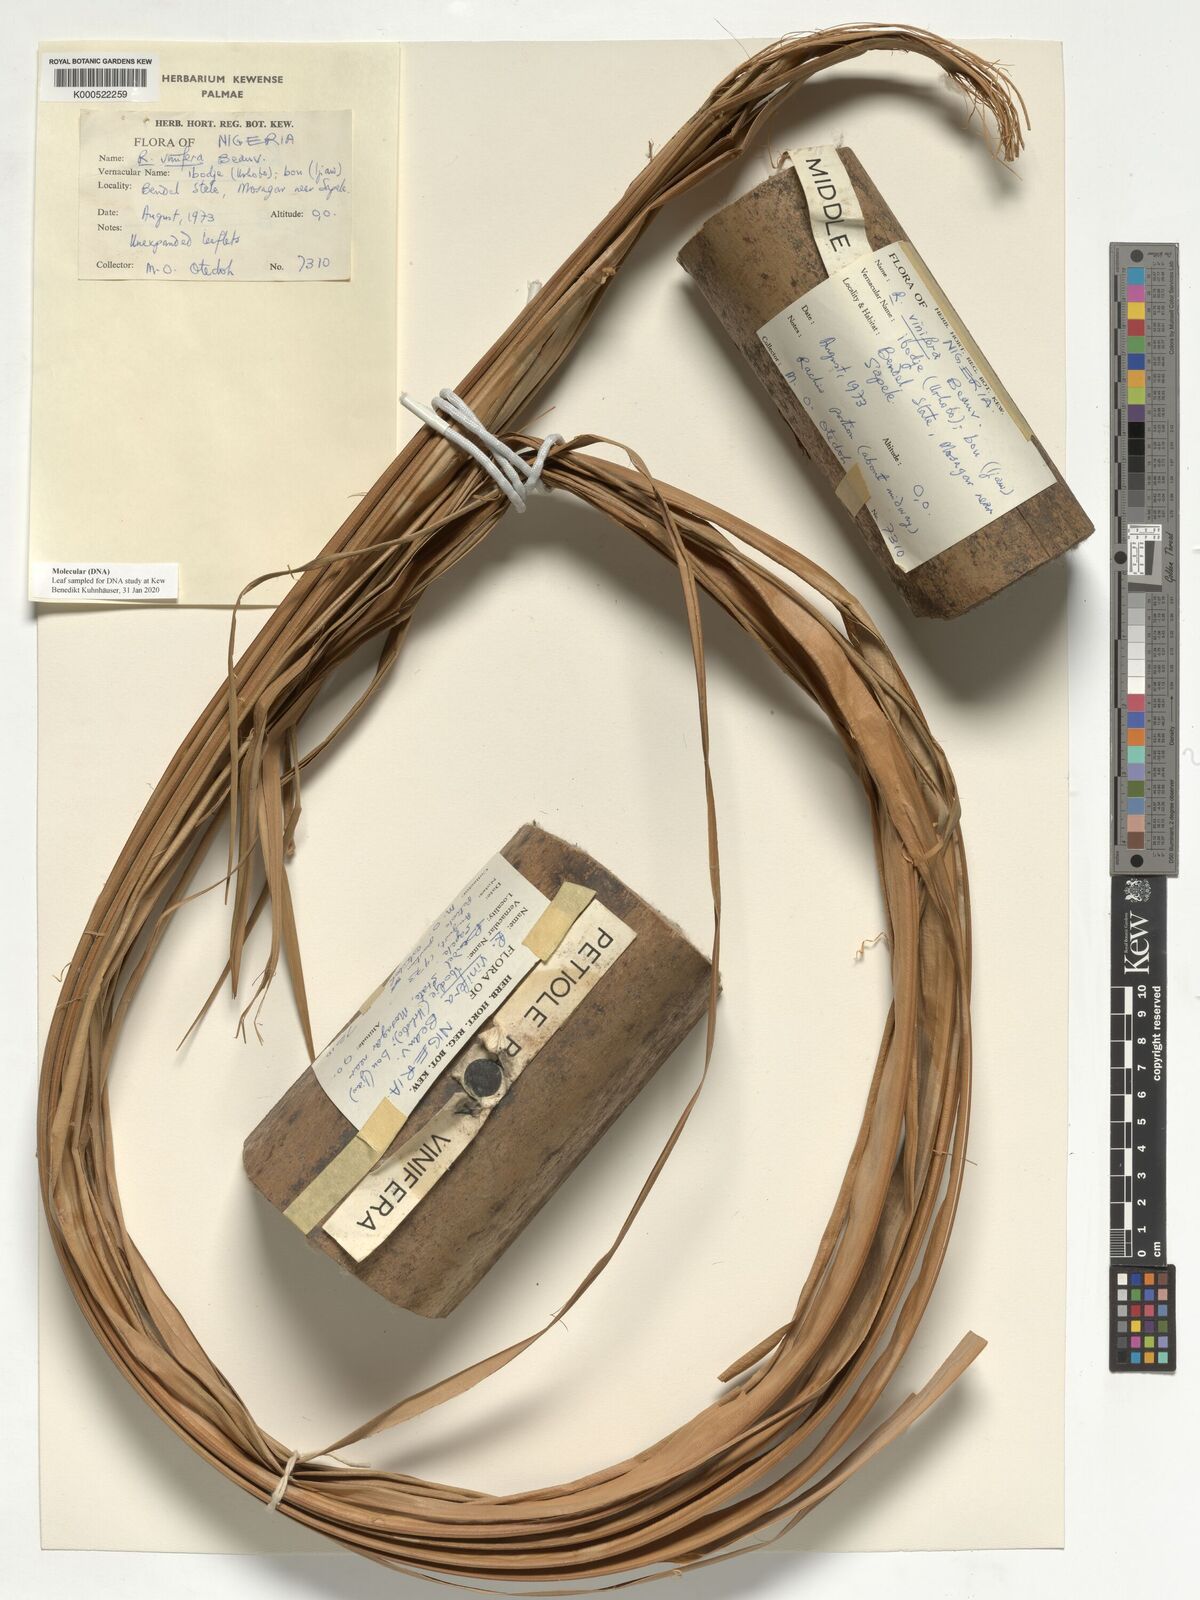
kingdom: Plantae
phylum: Tracheophyta
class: Liliopsida
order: Arecales
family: Arecaceae
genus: Raphia
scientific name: Raphia vinifera
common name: Raphia palm
